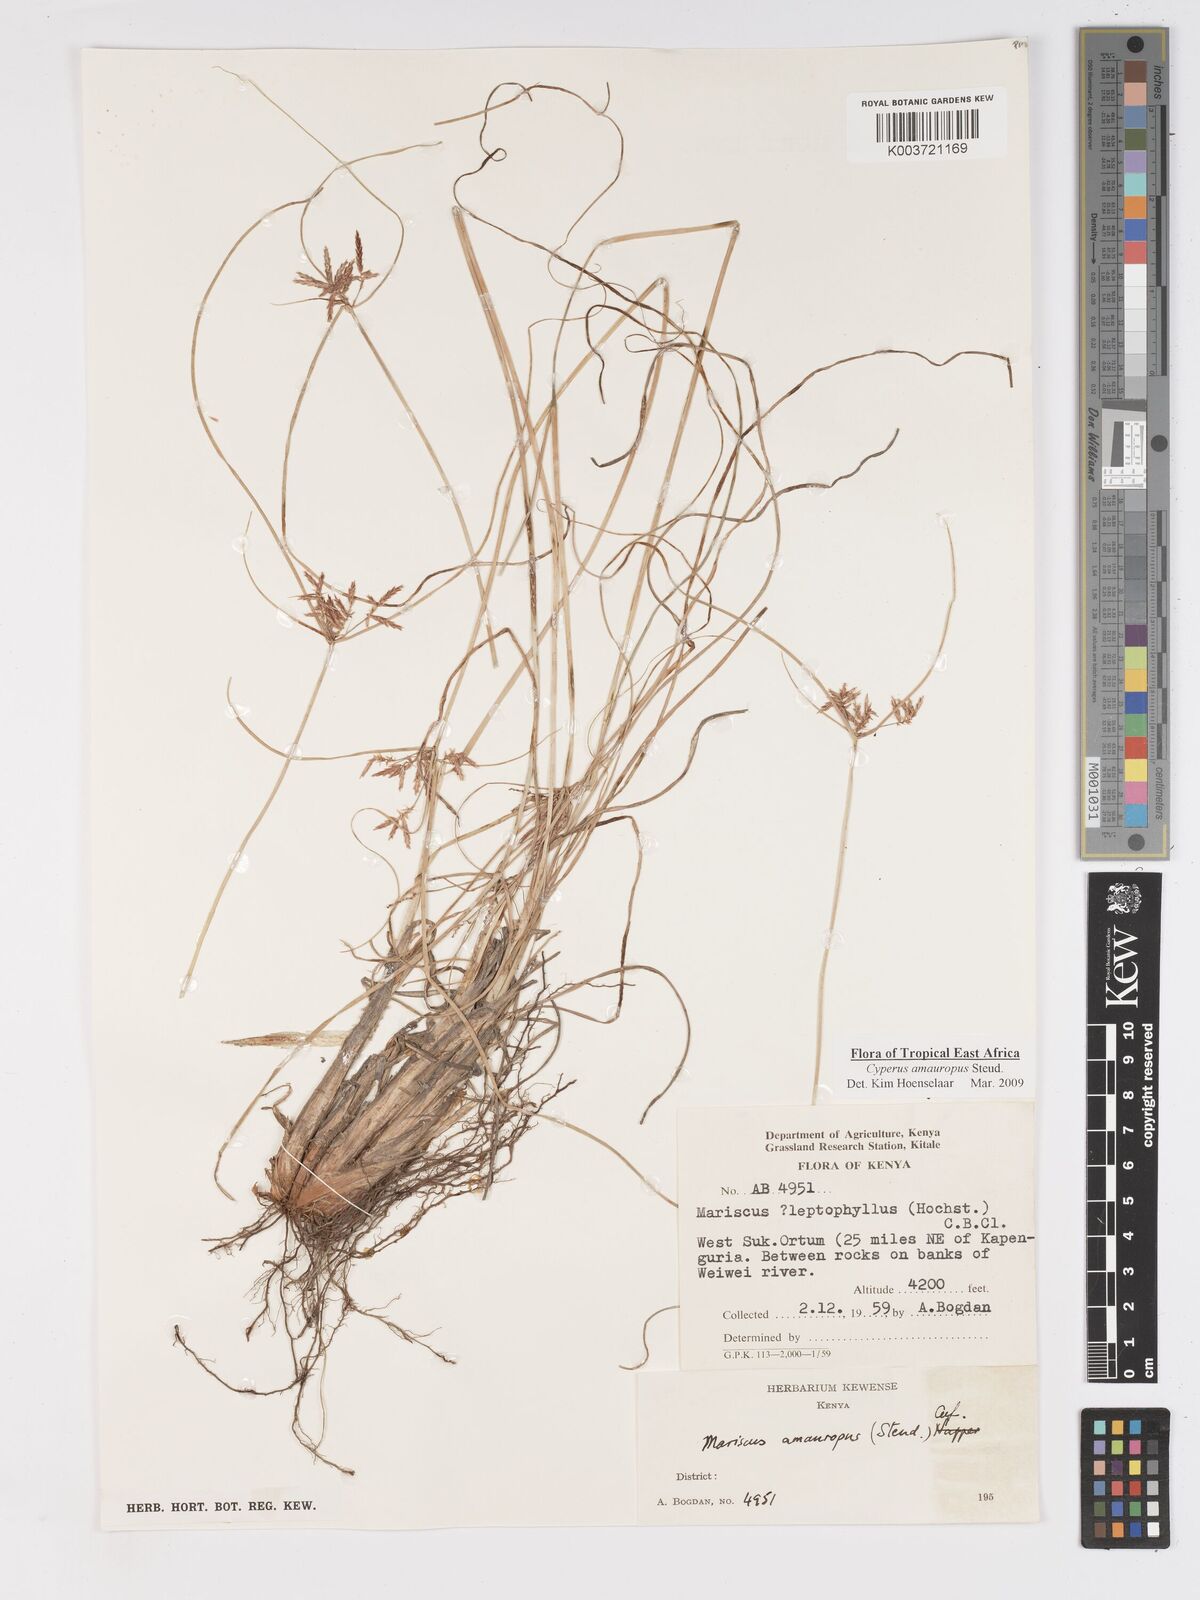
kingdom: Plantae
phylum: Tracheophyta
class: Liliopsida
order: Poales
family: Cyperaceae
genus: Cyperus
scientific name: Cyperus amauropus
